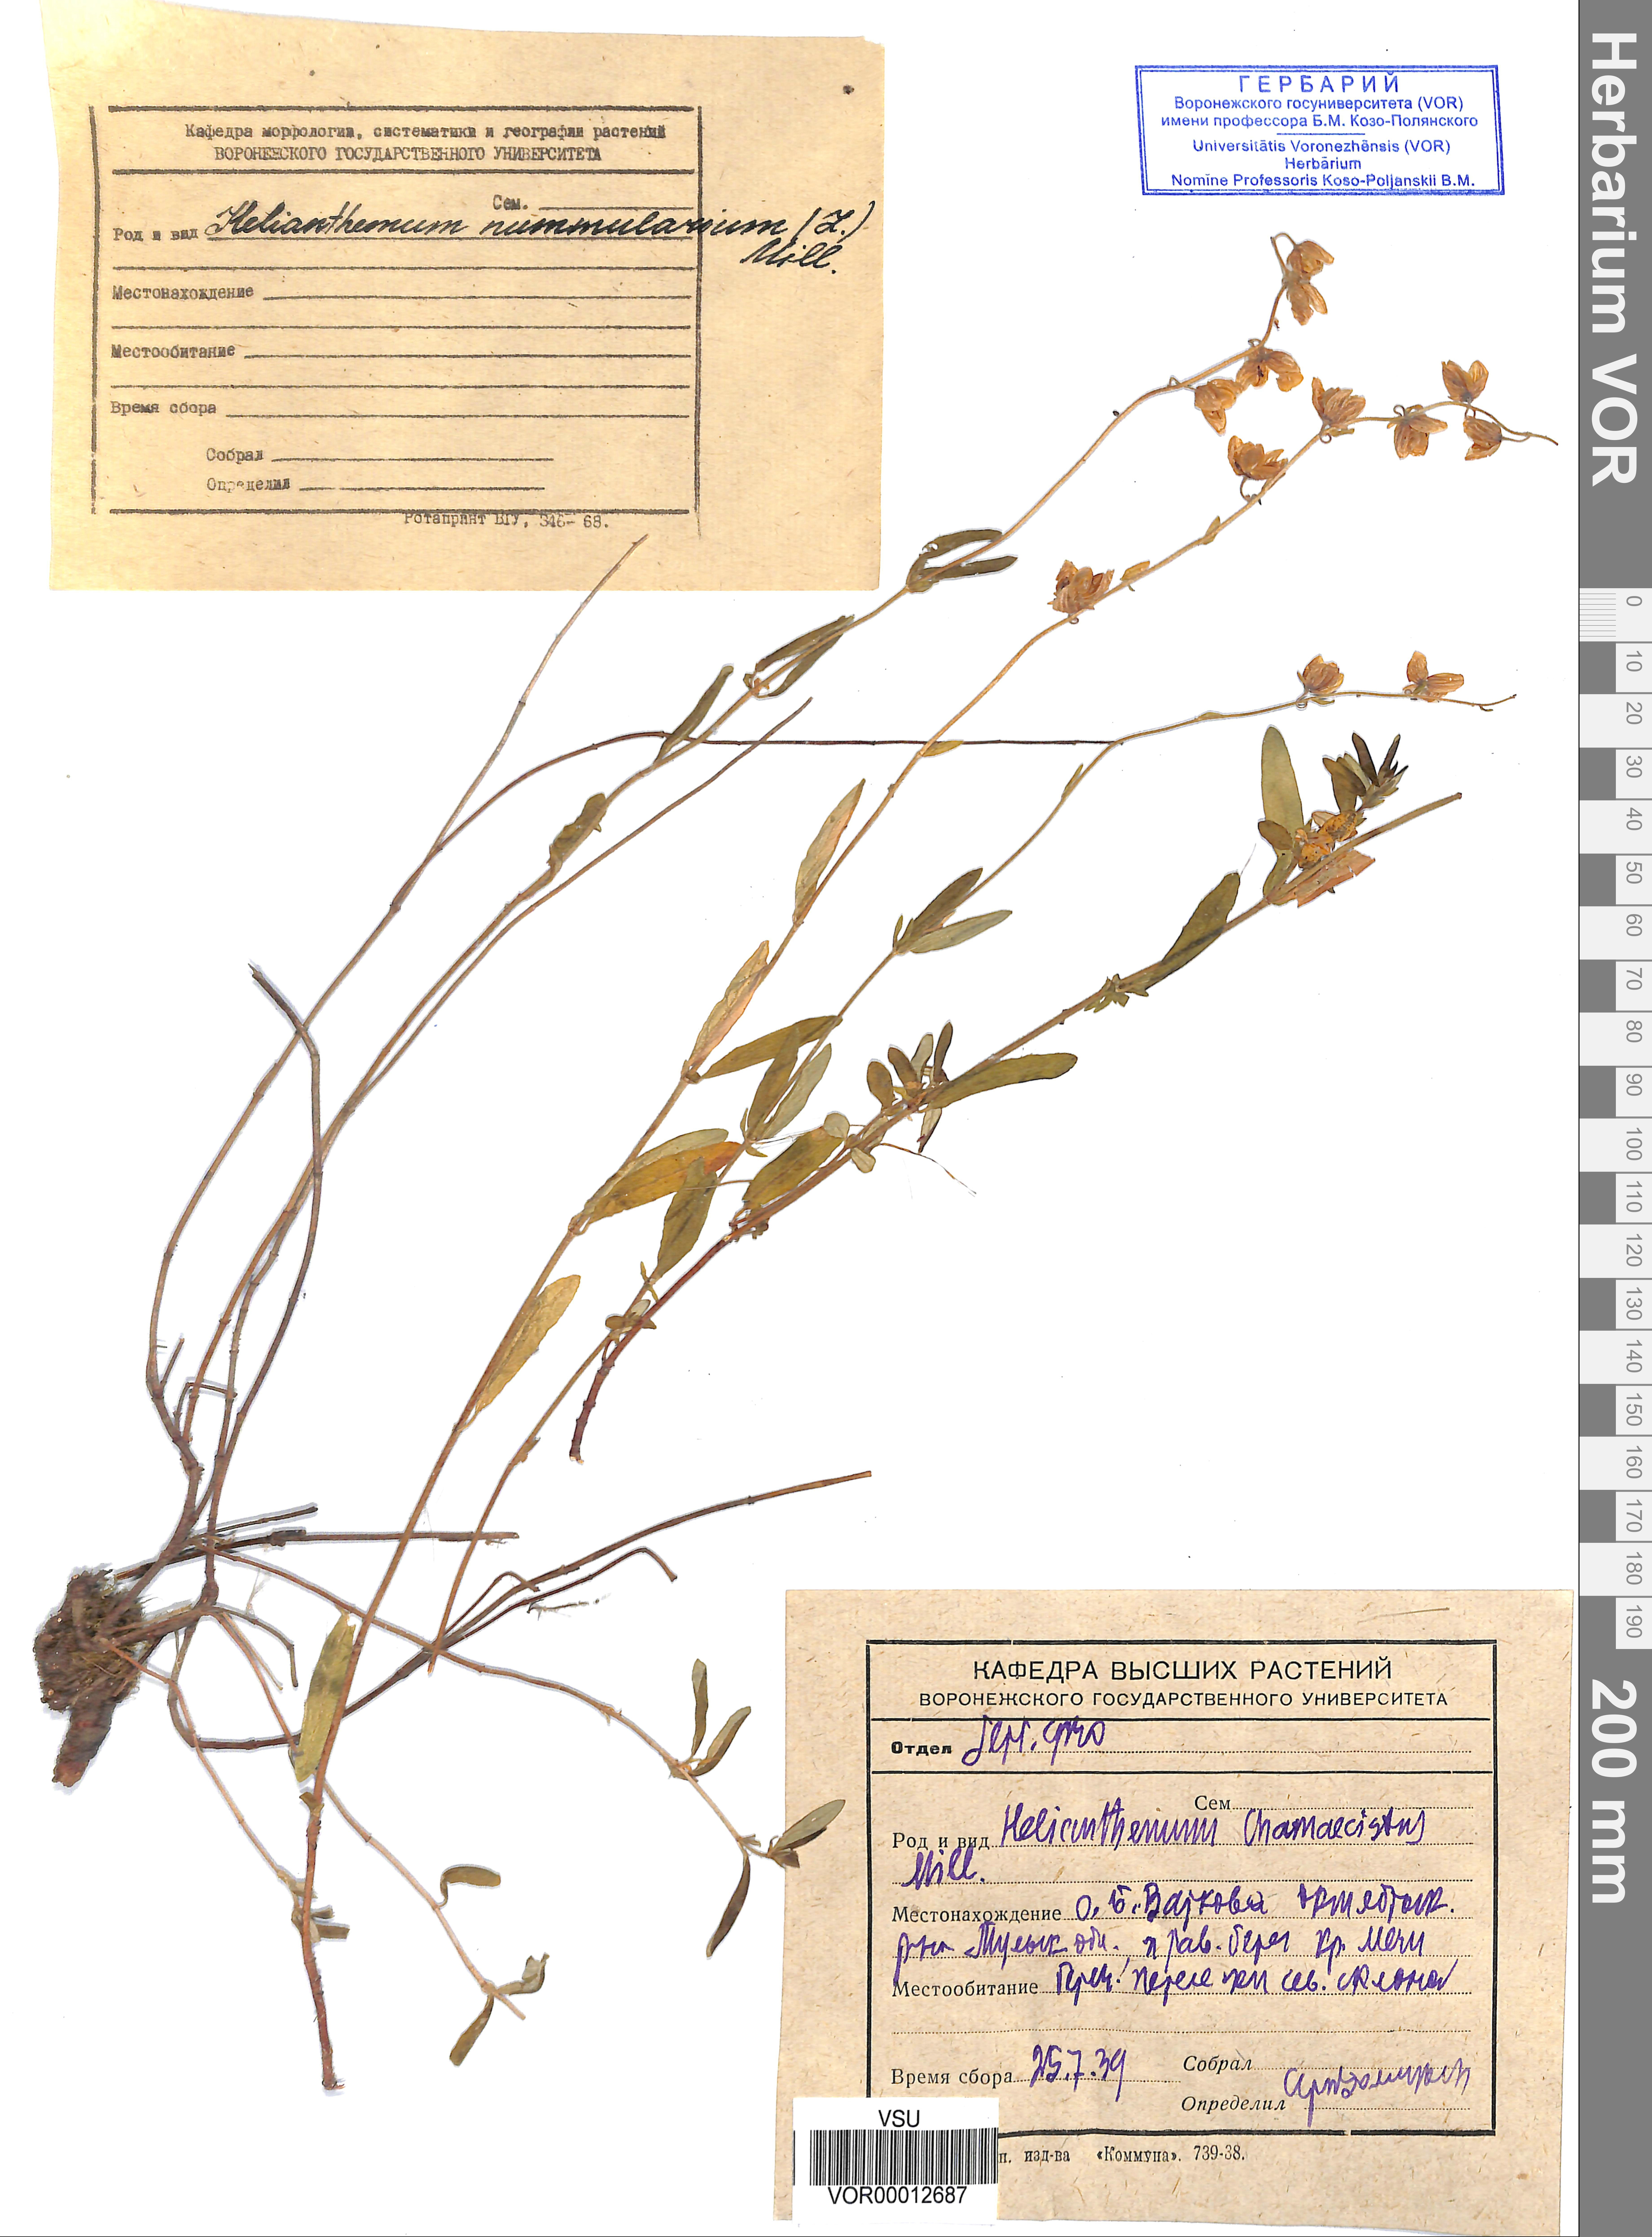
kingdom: Plantae
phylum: Tracheophyta
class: Magnoliopsida
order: Malvales
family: Cistaceae
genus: Helianthemum
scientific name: Helianthemum nummularium
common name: Common rock-rose
